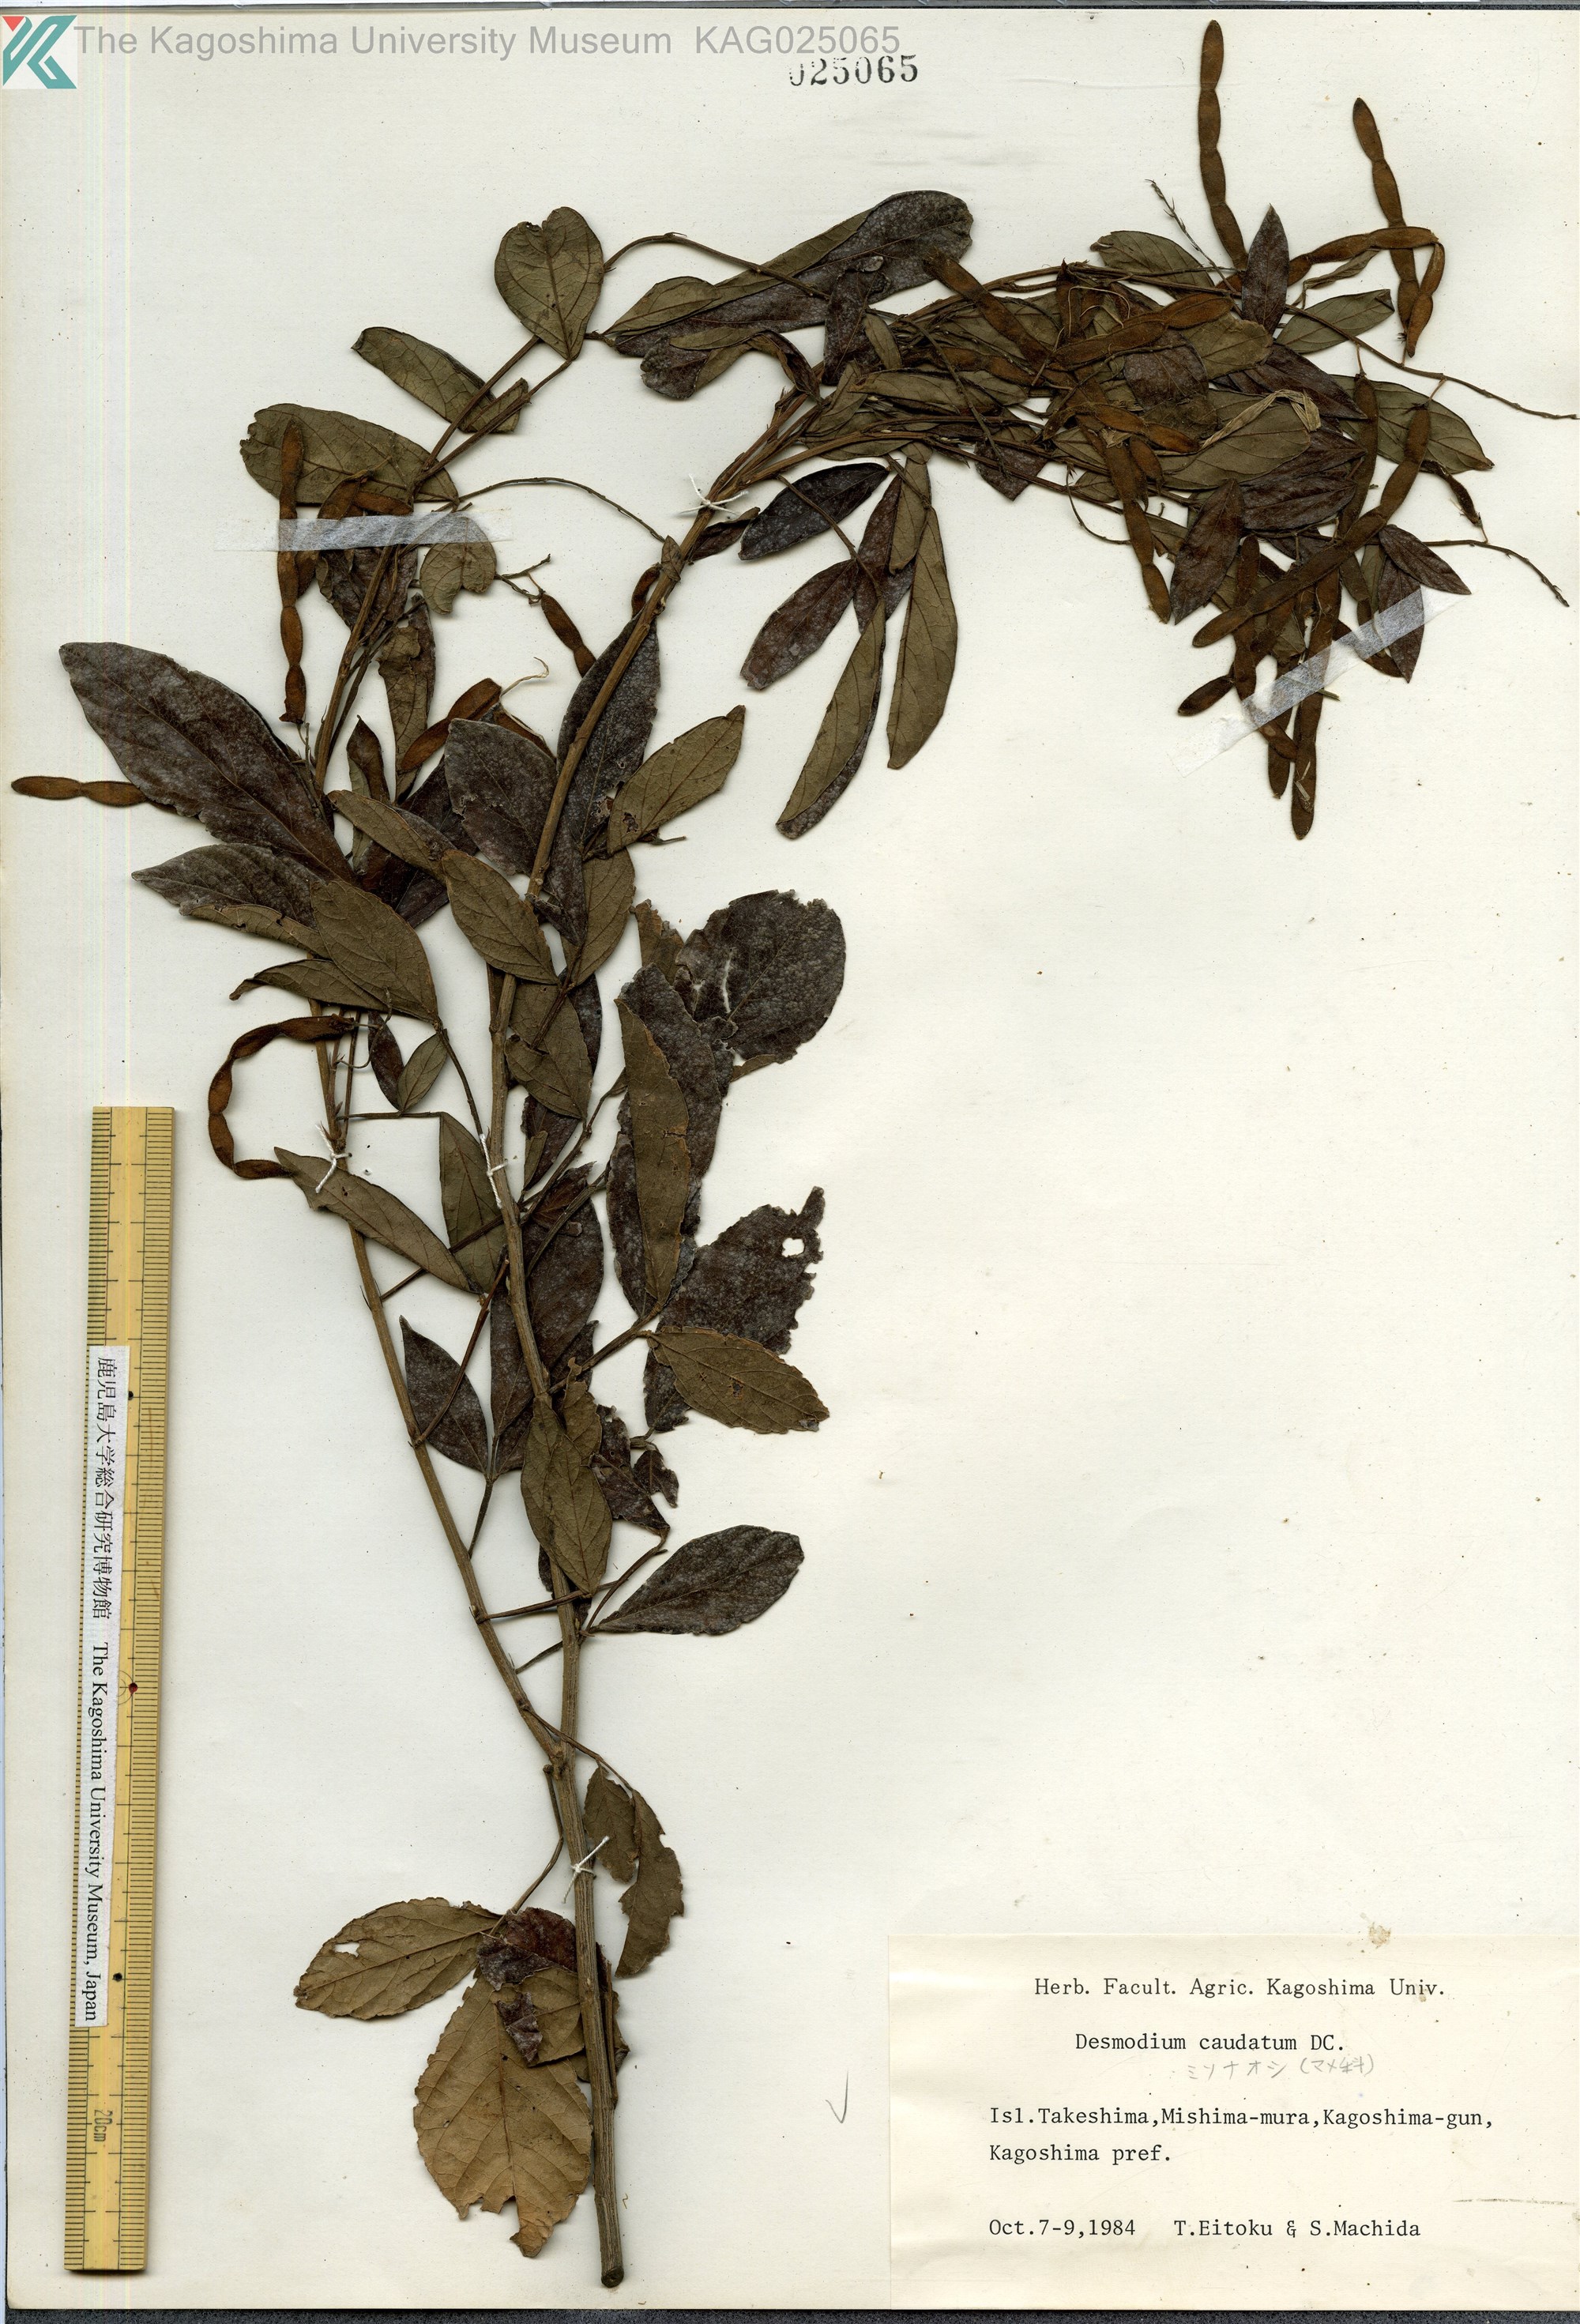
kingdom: Plantae
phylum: Tracheophyta
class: Magnoliopsida
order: Fabales
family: Fabaceae
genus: Ohwia
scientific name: Ohwia caudata
